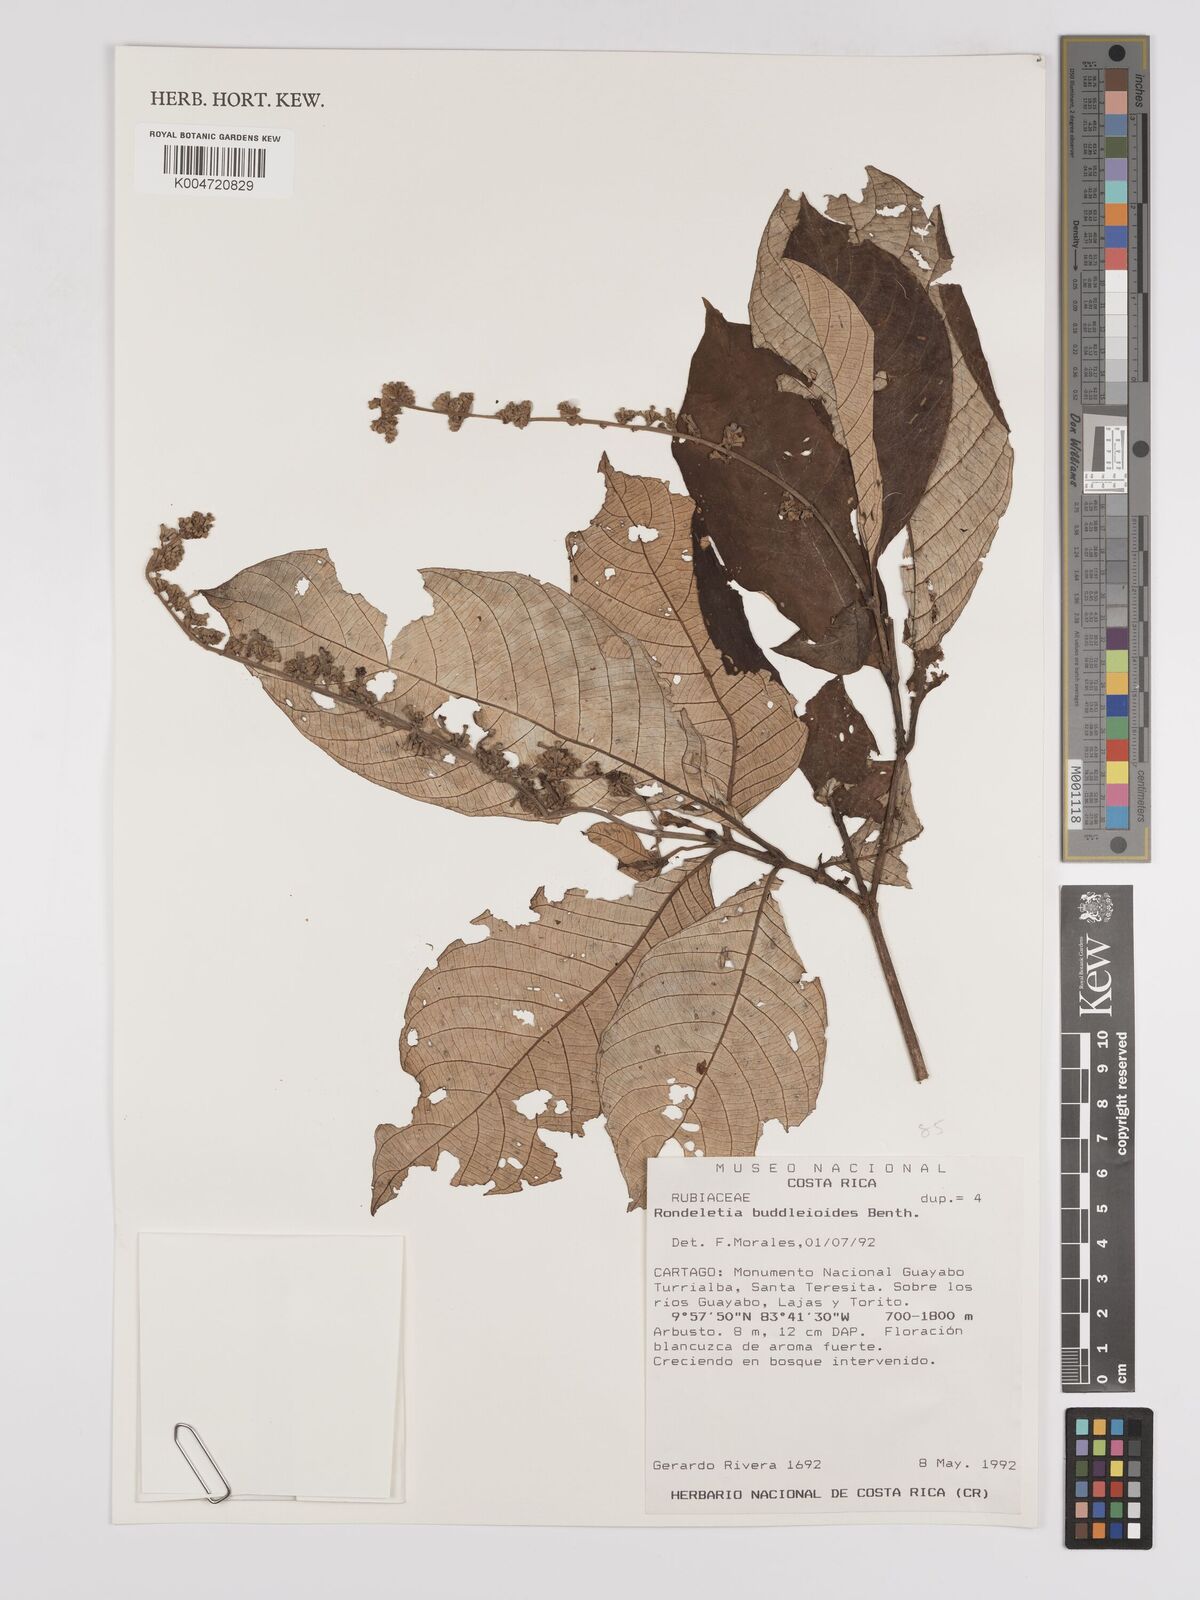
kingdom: Plantae
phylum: Tracheophyta
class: Magnoliopsida
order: Gentianales
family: Rubiaceae
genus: Arachnothryx
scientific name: Arachnothryx buddleioides
